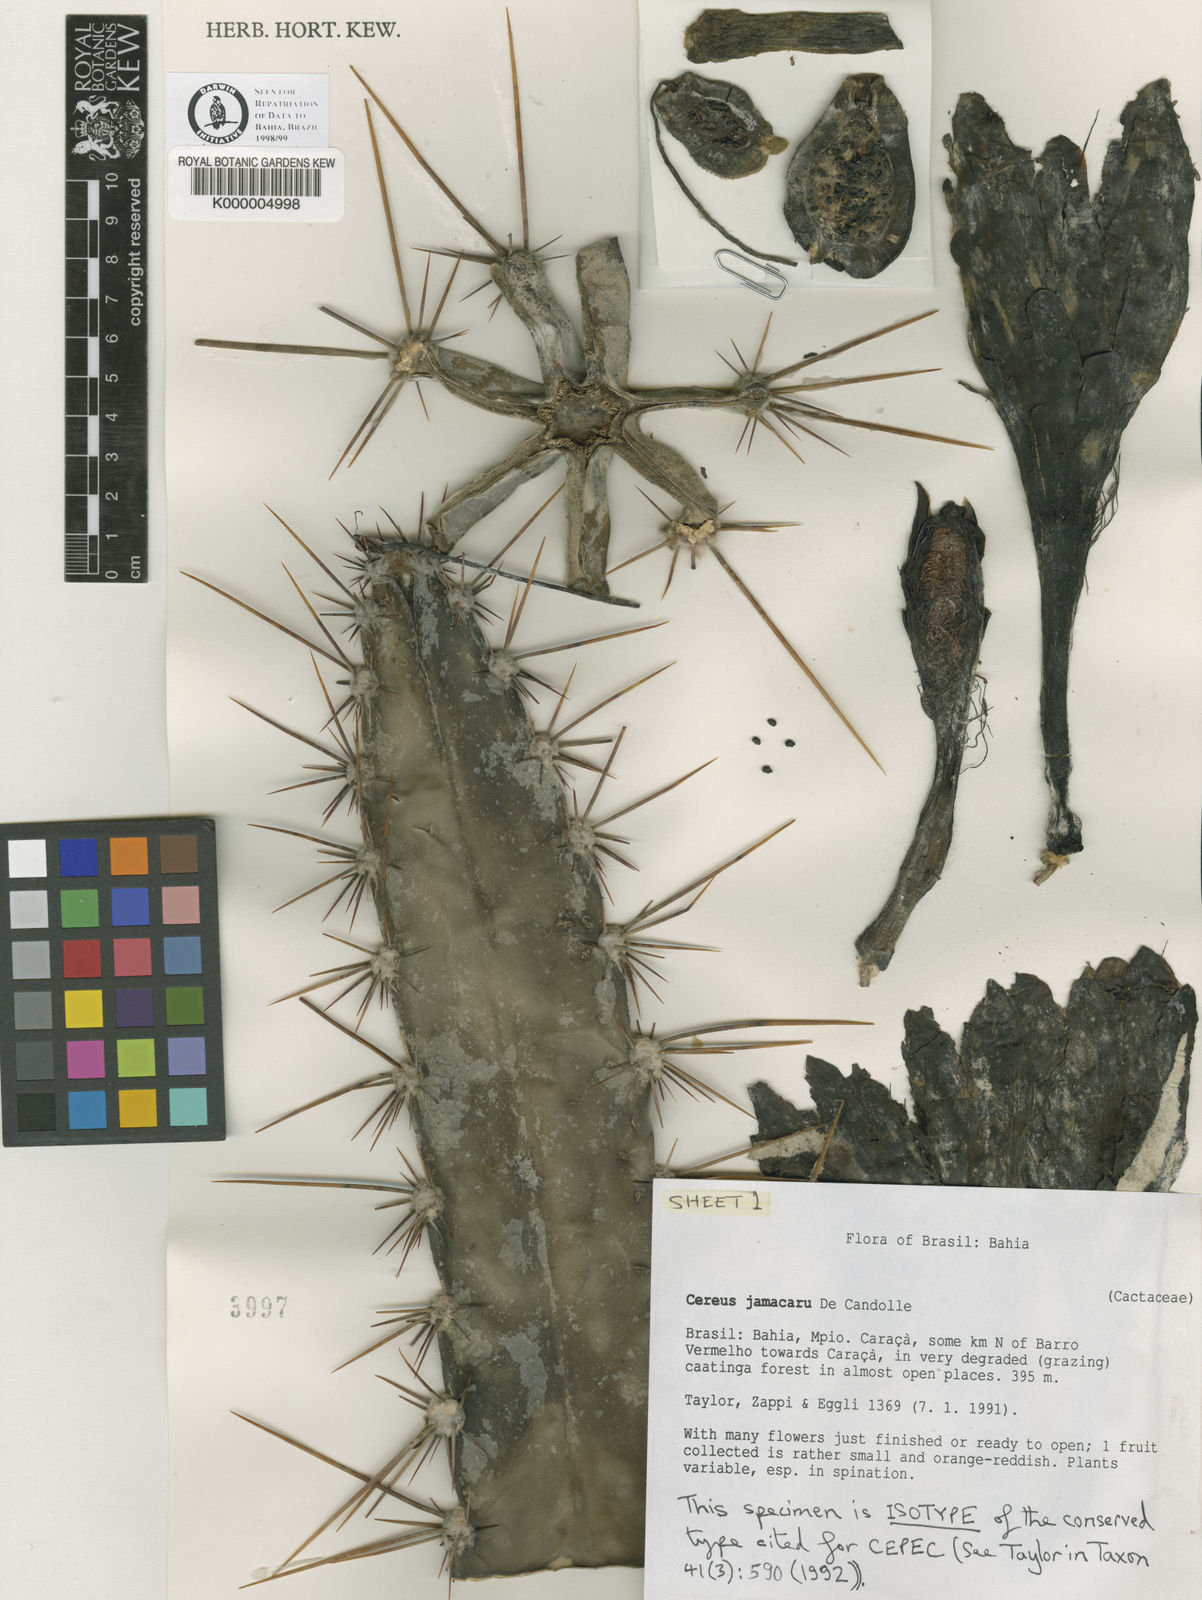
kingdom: Plantae
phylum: Tracheophyta
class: Magnoliopsida
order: Caryophyllales
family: Cactaceae
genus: Cereus
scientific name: Cereus jamacaru
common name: Queen-of-the-night
